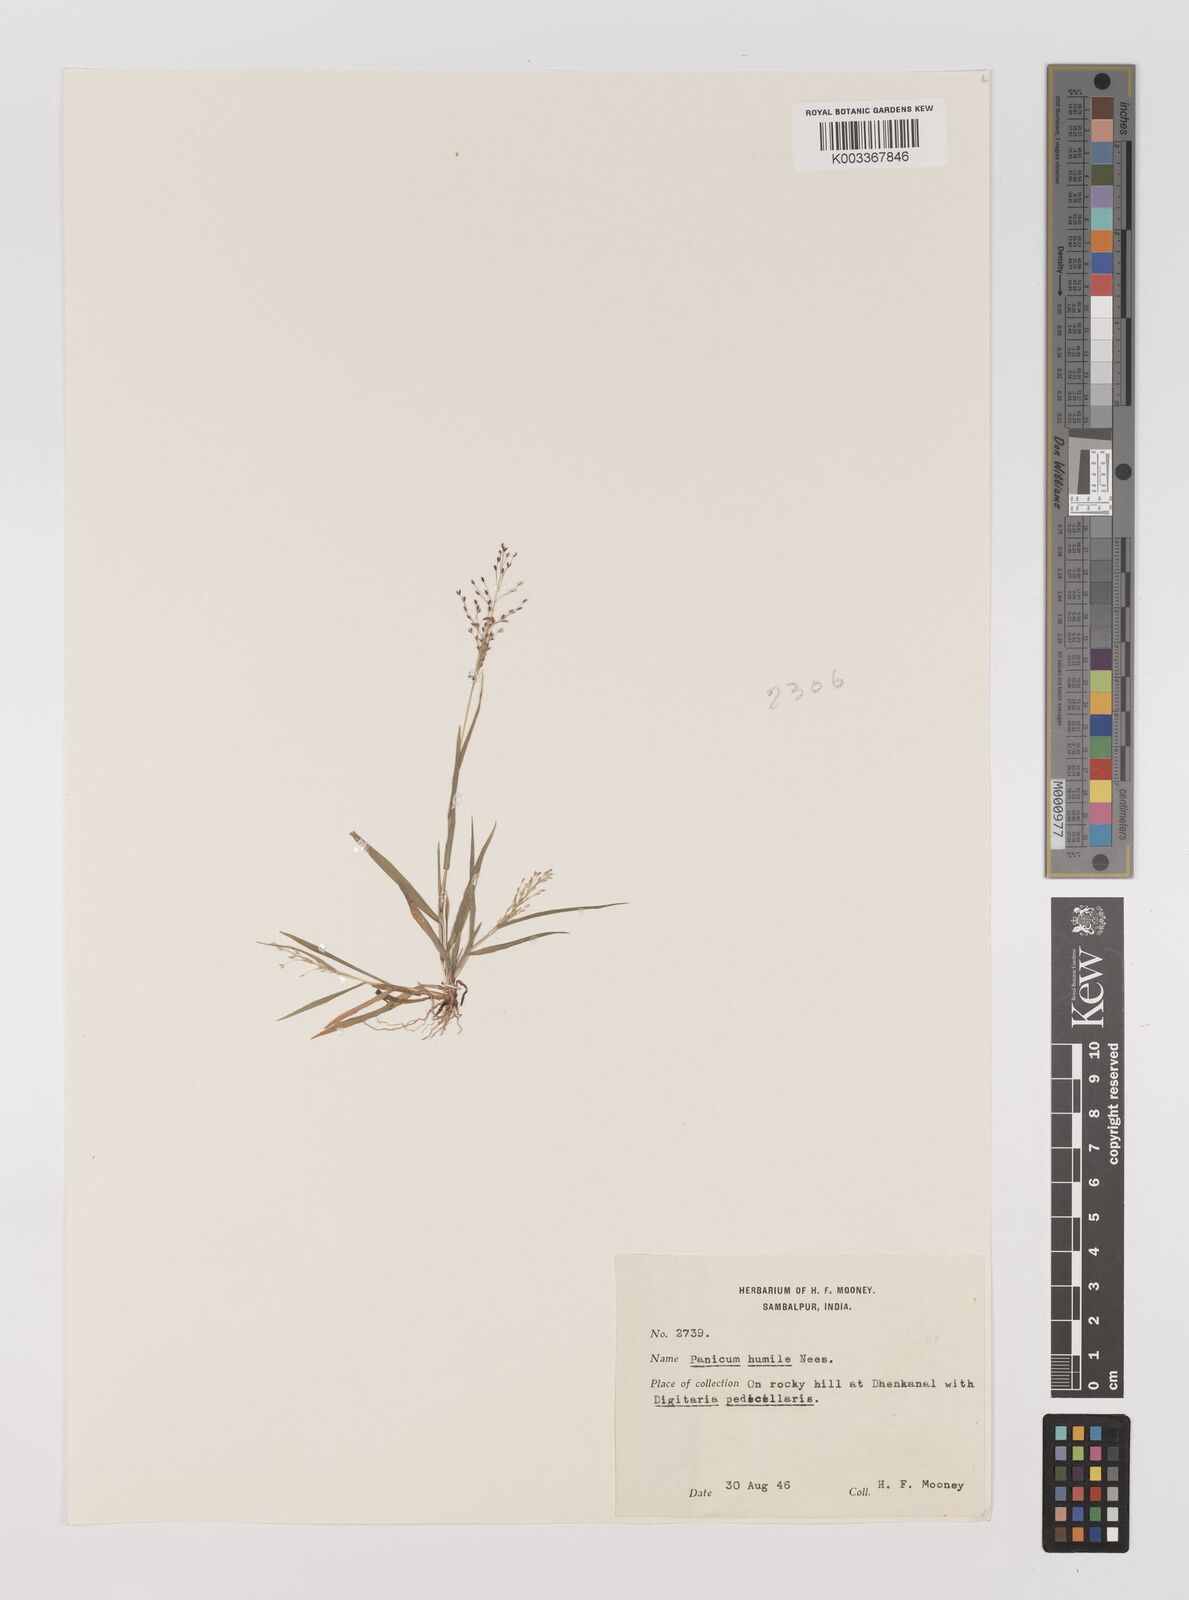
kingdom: Plantae
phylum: Tracheophyta
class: Liliopsida
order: Poales
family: Poaceae
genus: Panicum
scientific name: Panicum humile
